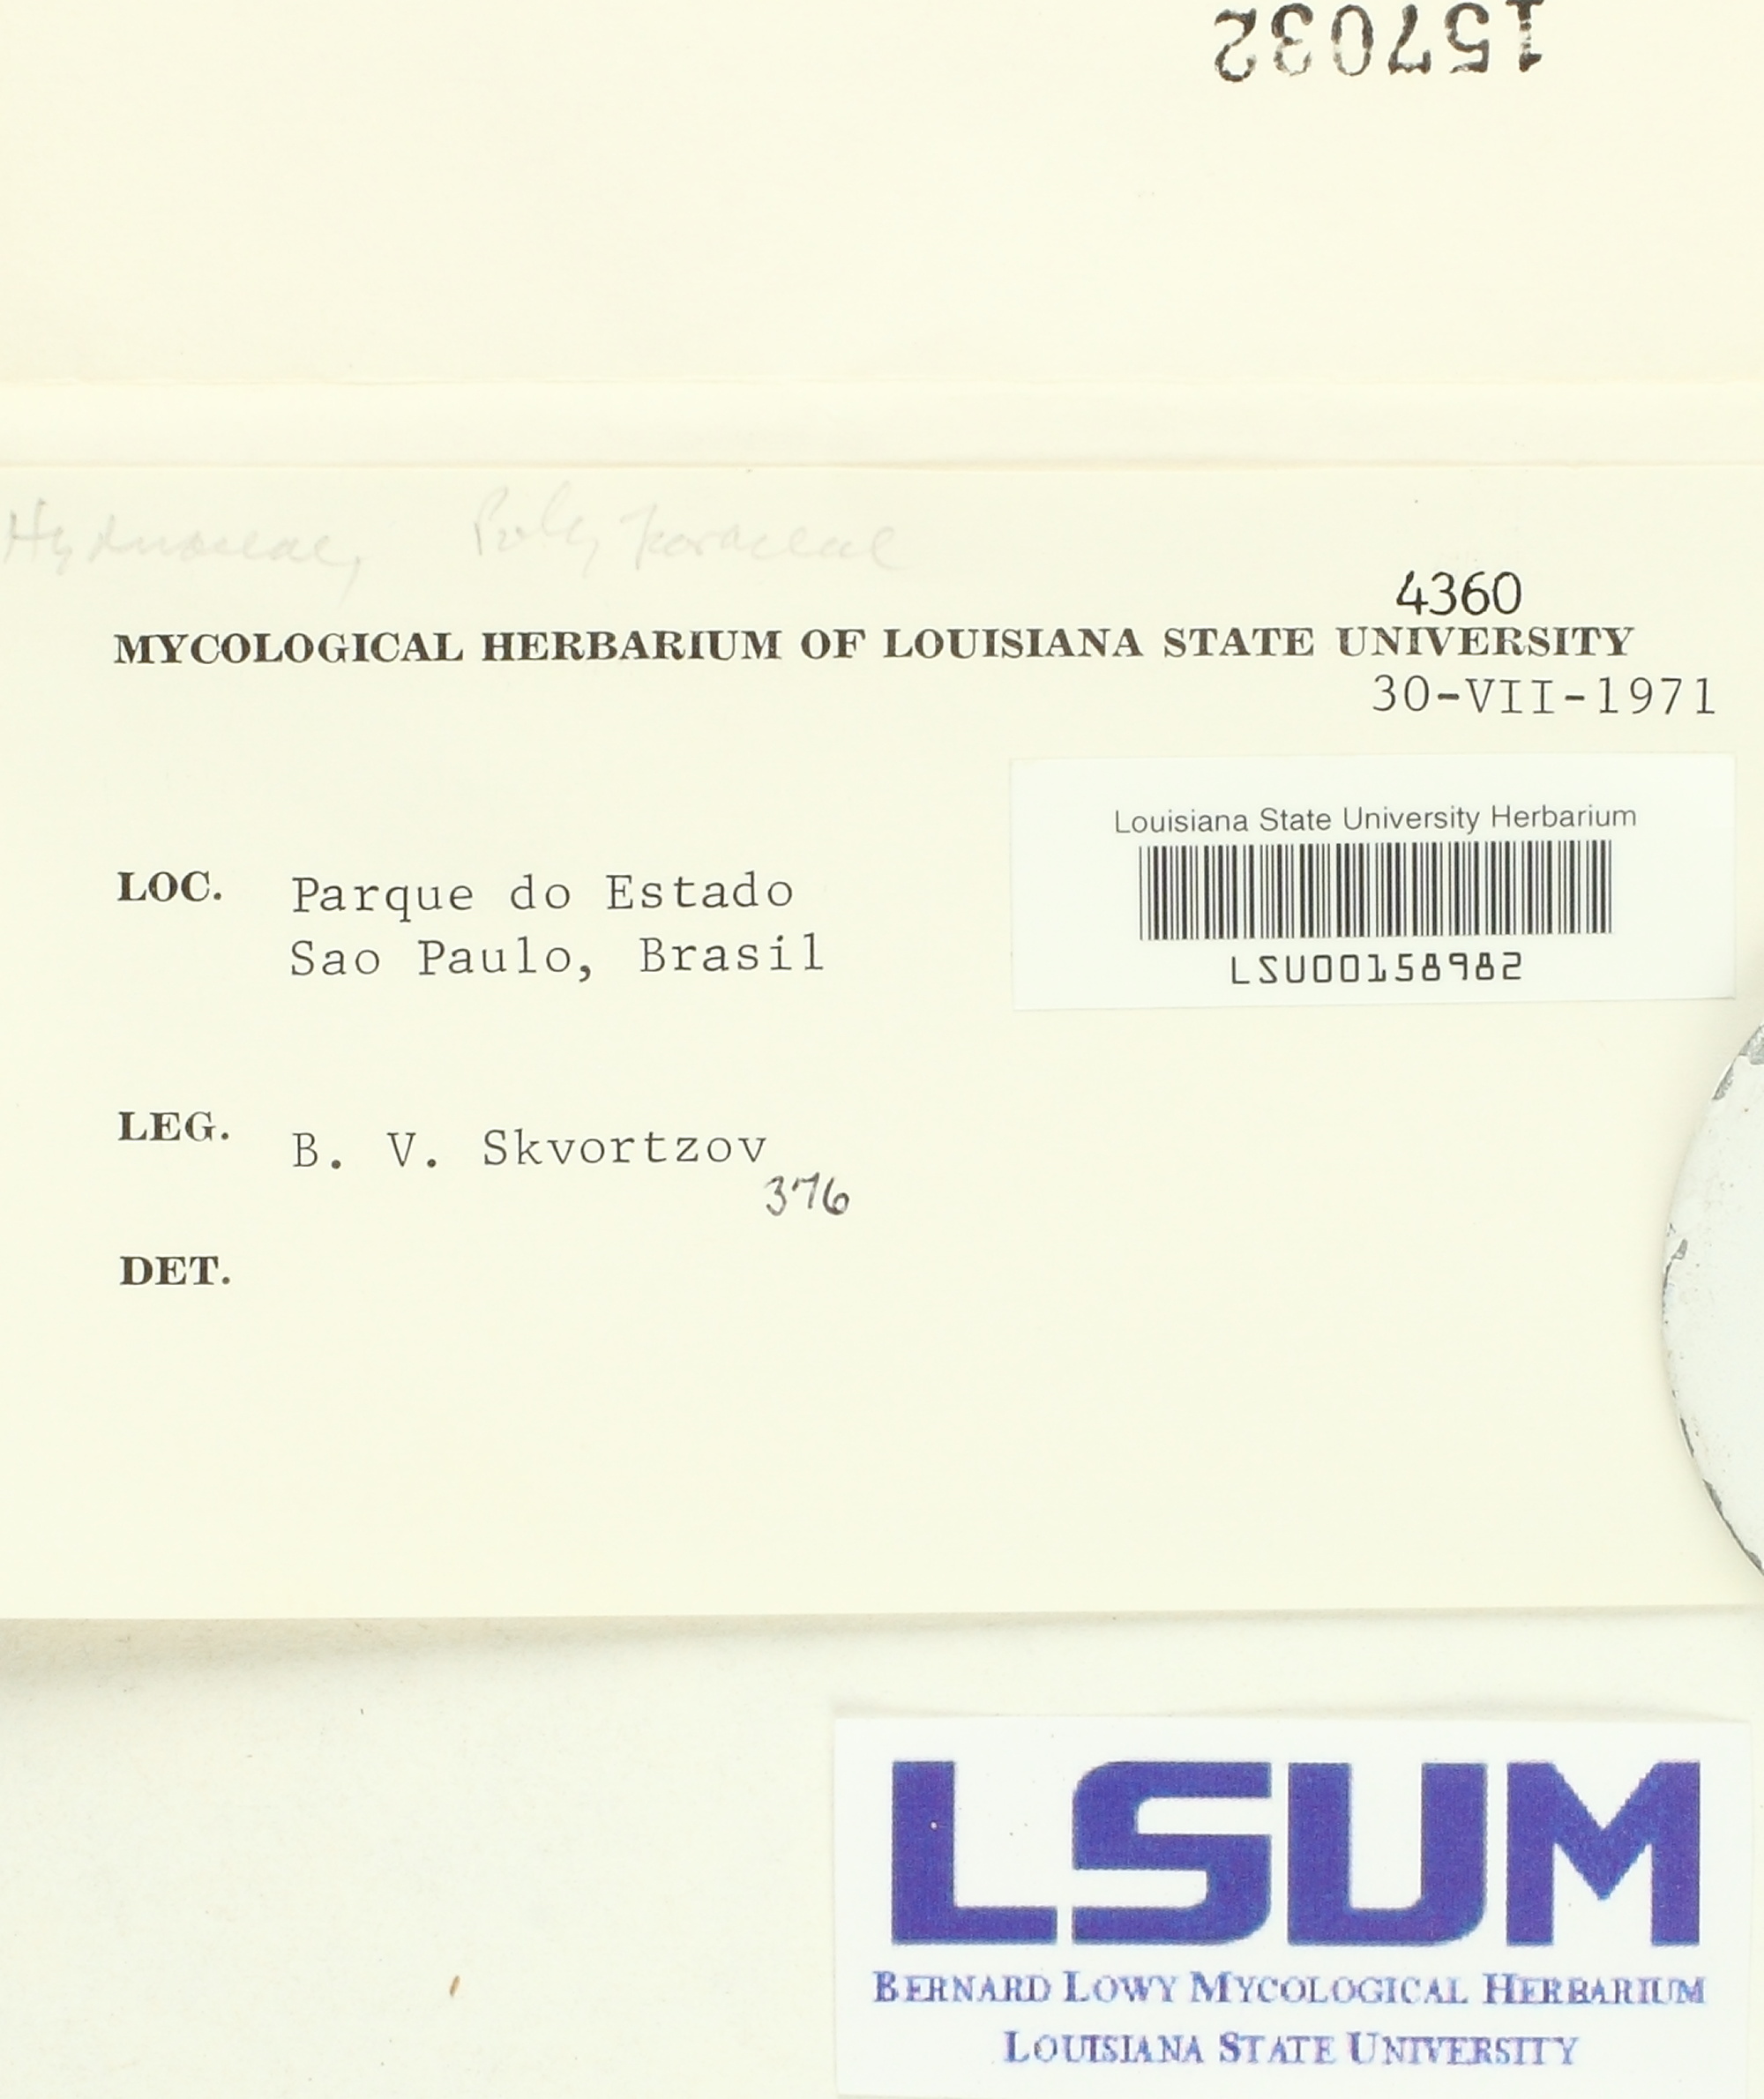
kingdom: Fungi
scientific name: Fungi
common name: Fungi
